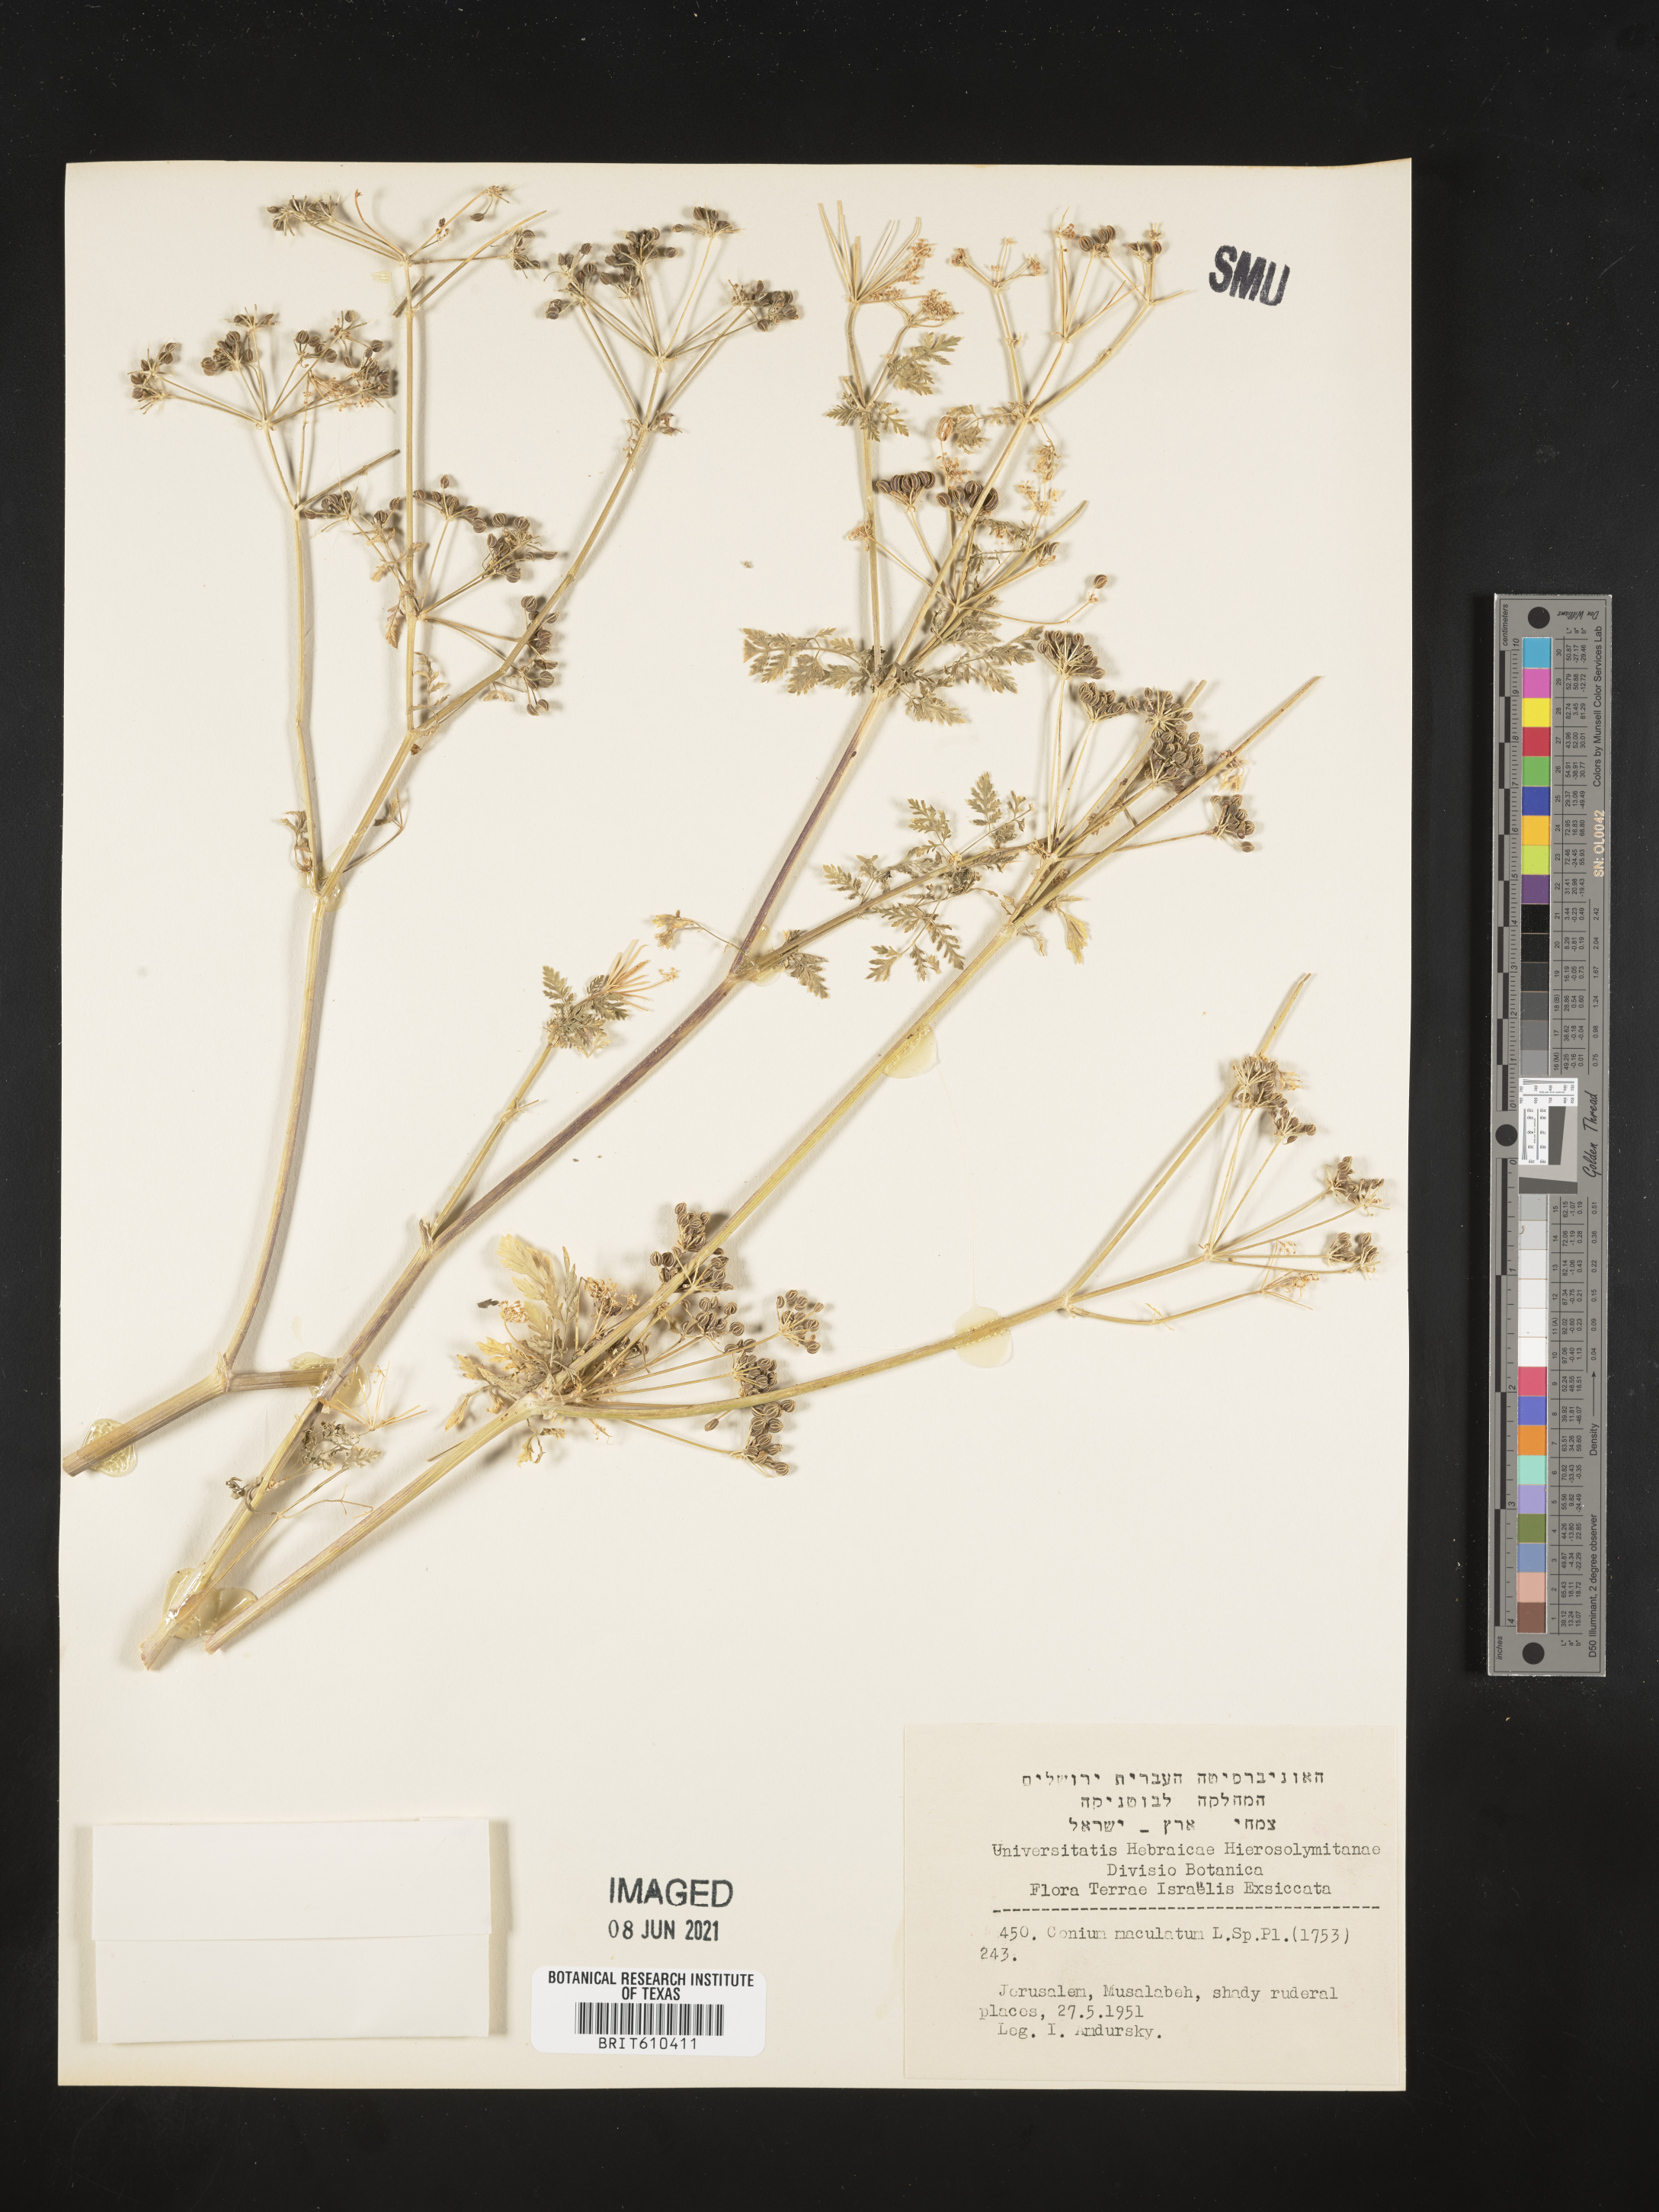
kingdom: Plantae
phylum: Tracheophyta
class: Magnoliopsida
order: Apiales
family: Apiaceae
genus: Conium
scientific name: Conium maculatum
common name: Hemlock
